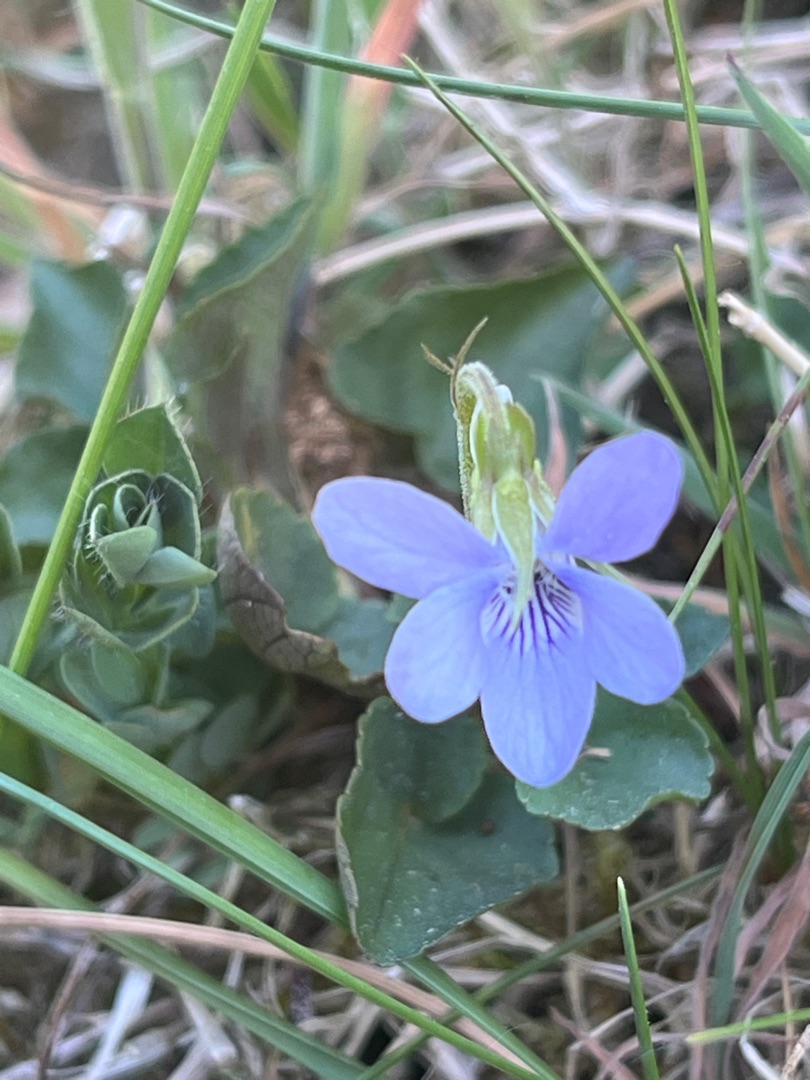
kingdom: Plantae
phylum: Tracheophyta
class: Magnoliopsida
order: Malpighiales
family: Violaceae
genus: Viola
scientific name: Viola canina
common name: Hunde-viol
